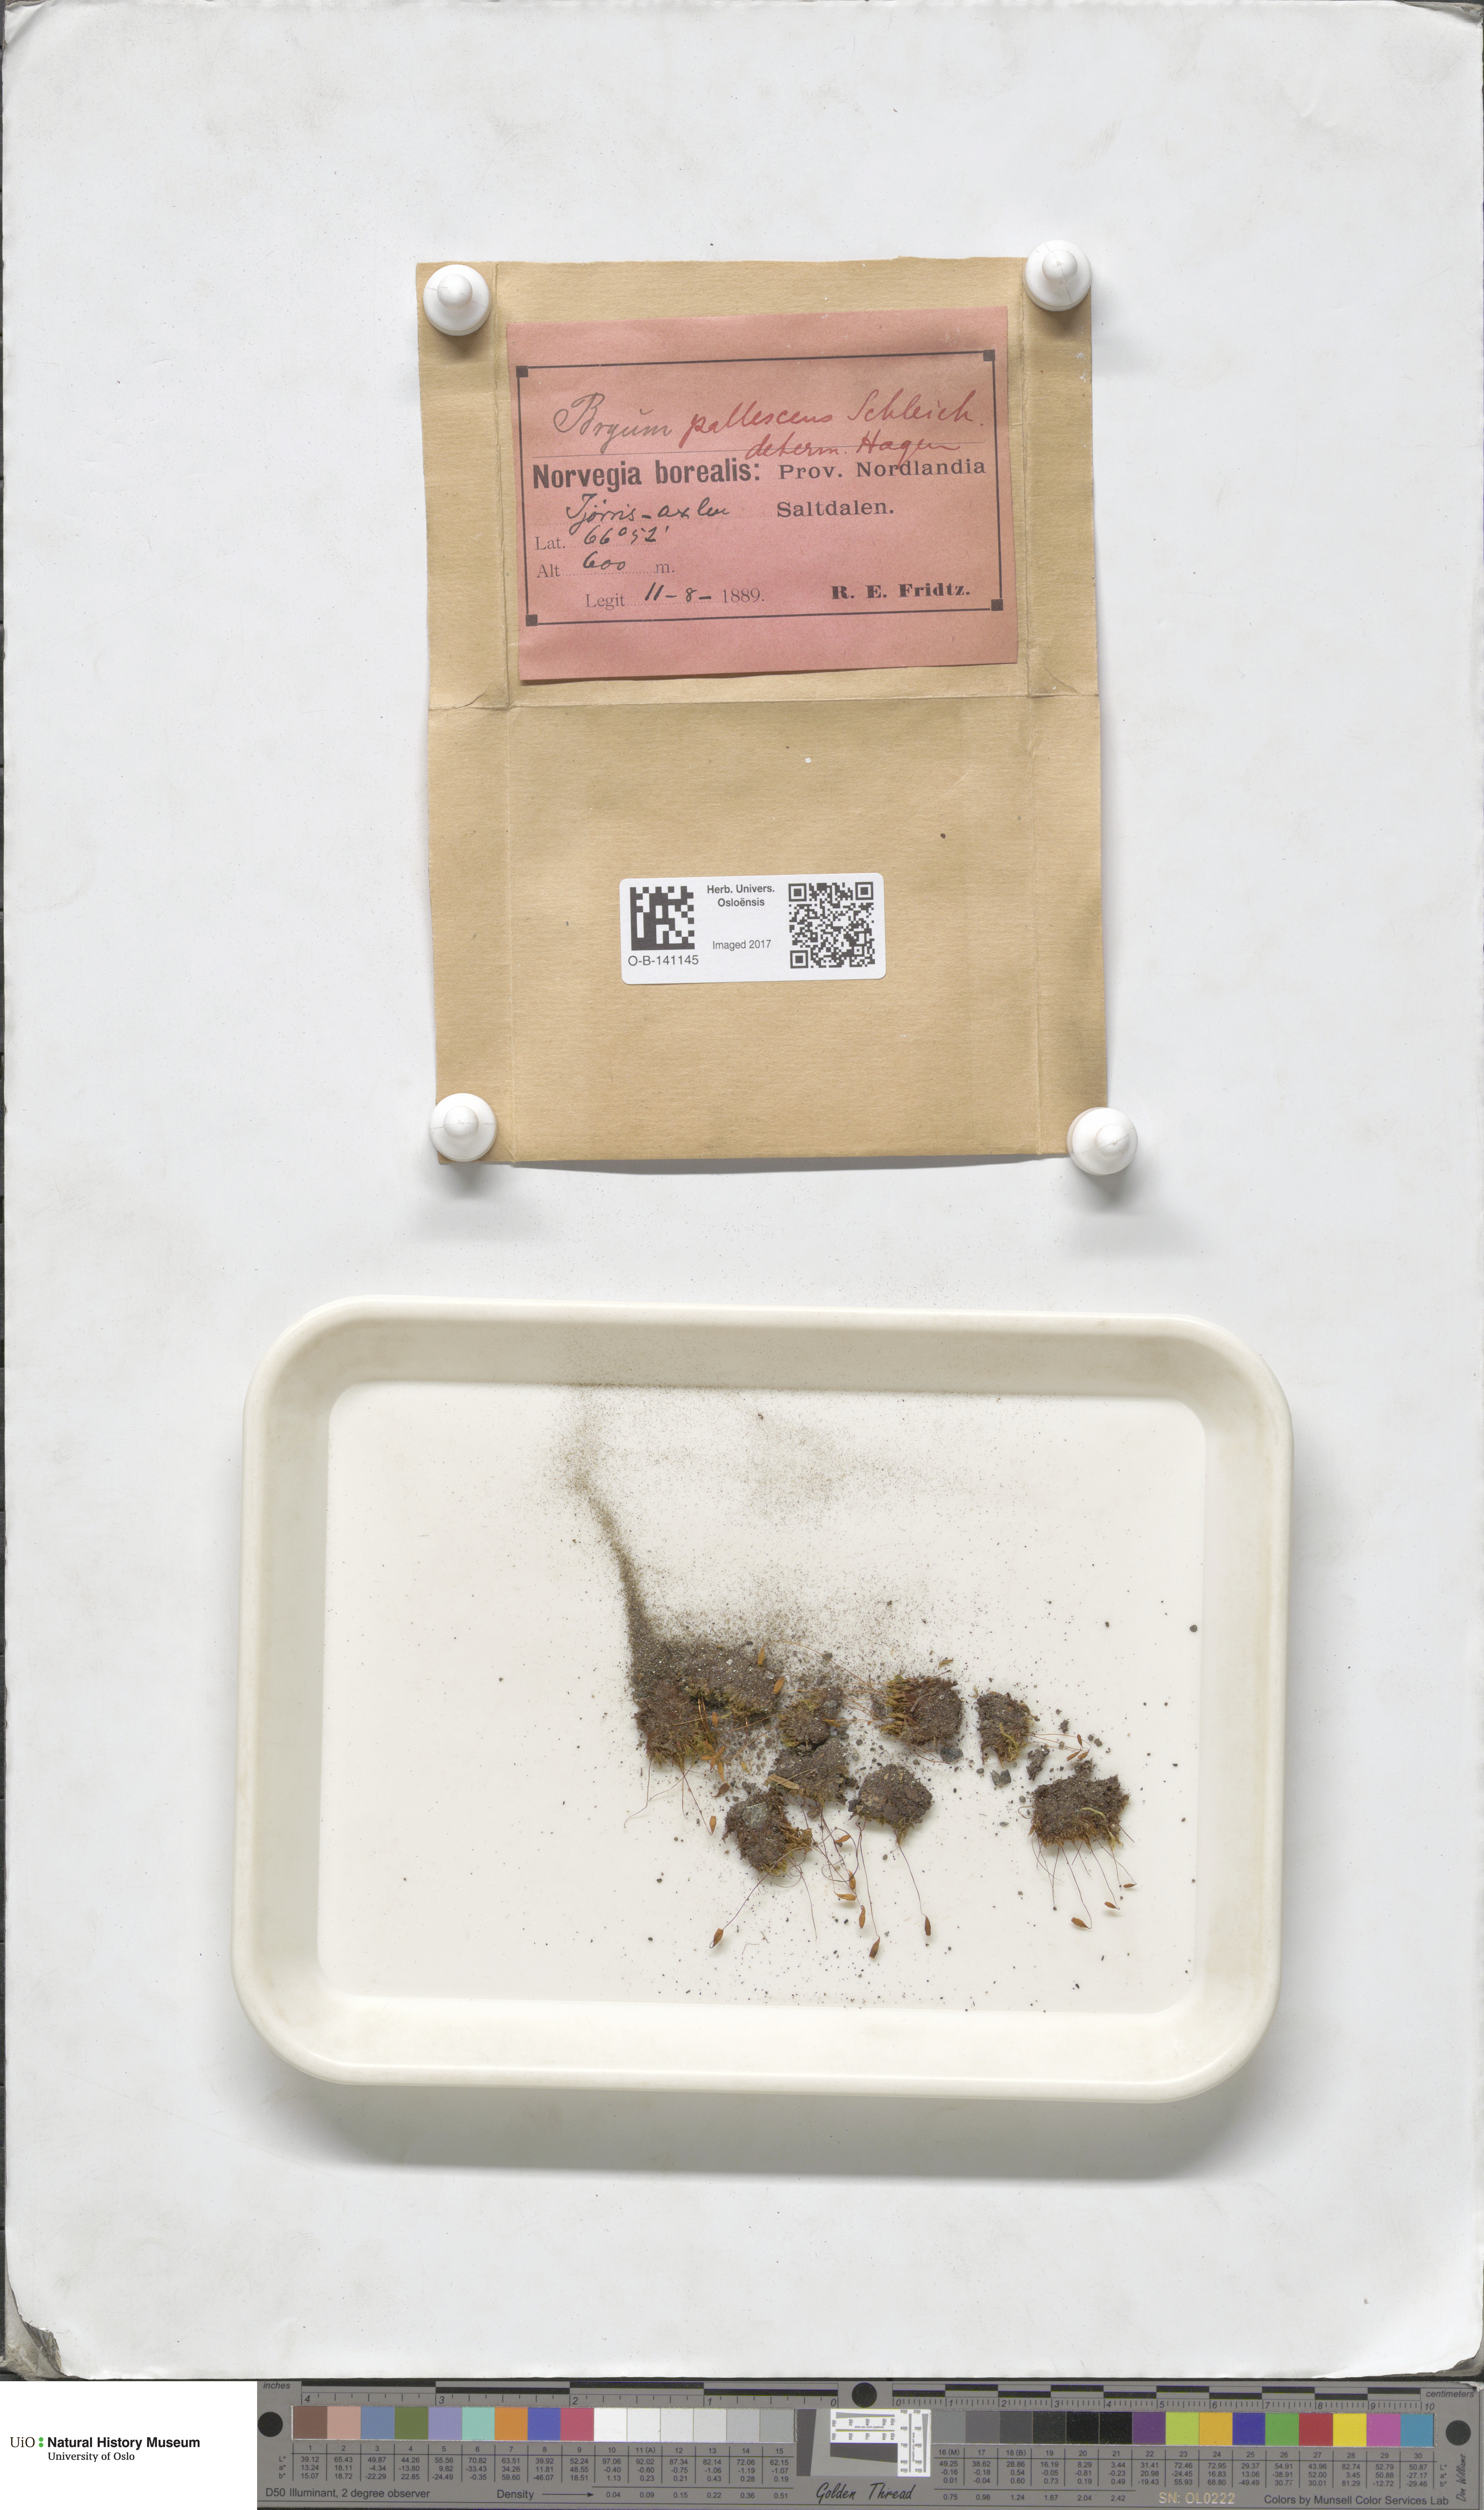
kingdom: Plantae
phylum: Bryophyta
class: Bryopsida
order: Bryales
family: Bryaceae
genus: Ptychostomum
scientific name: Ptychostomum pallens
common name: Pale thread-moss
